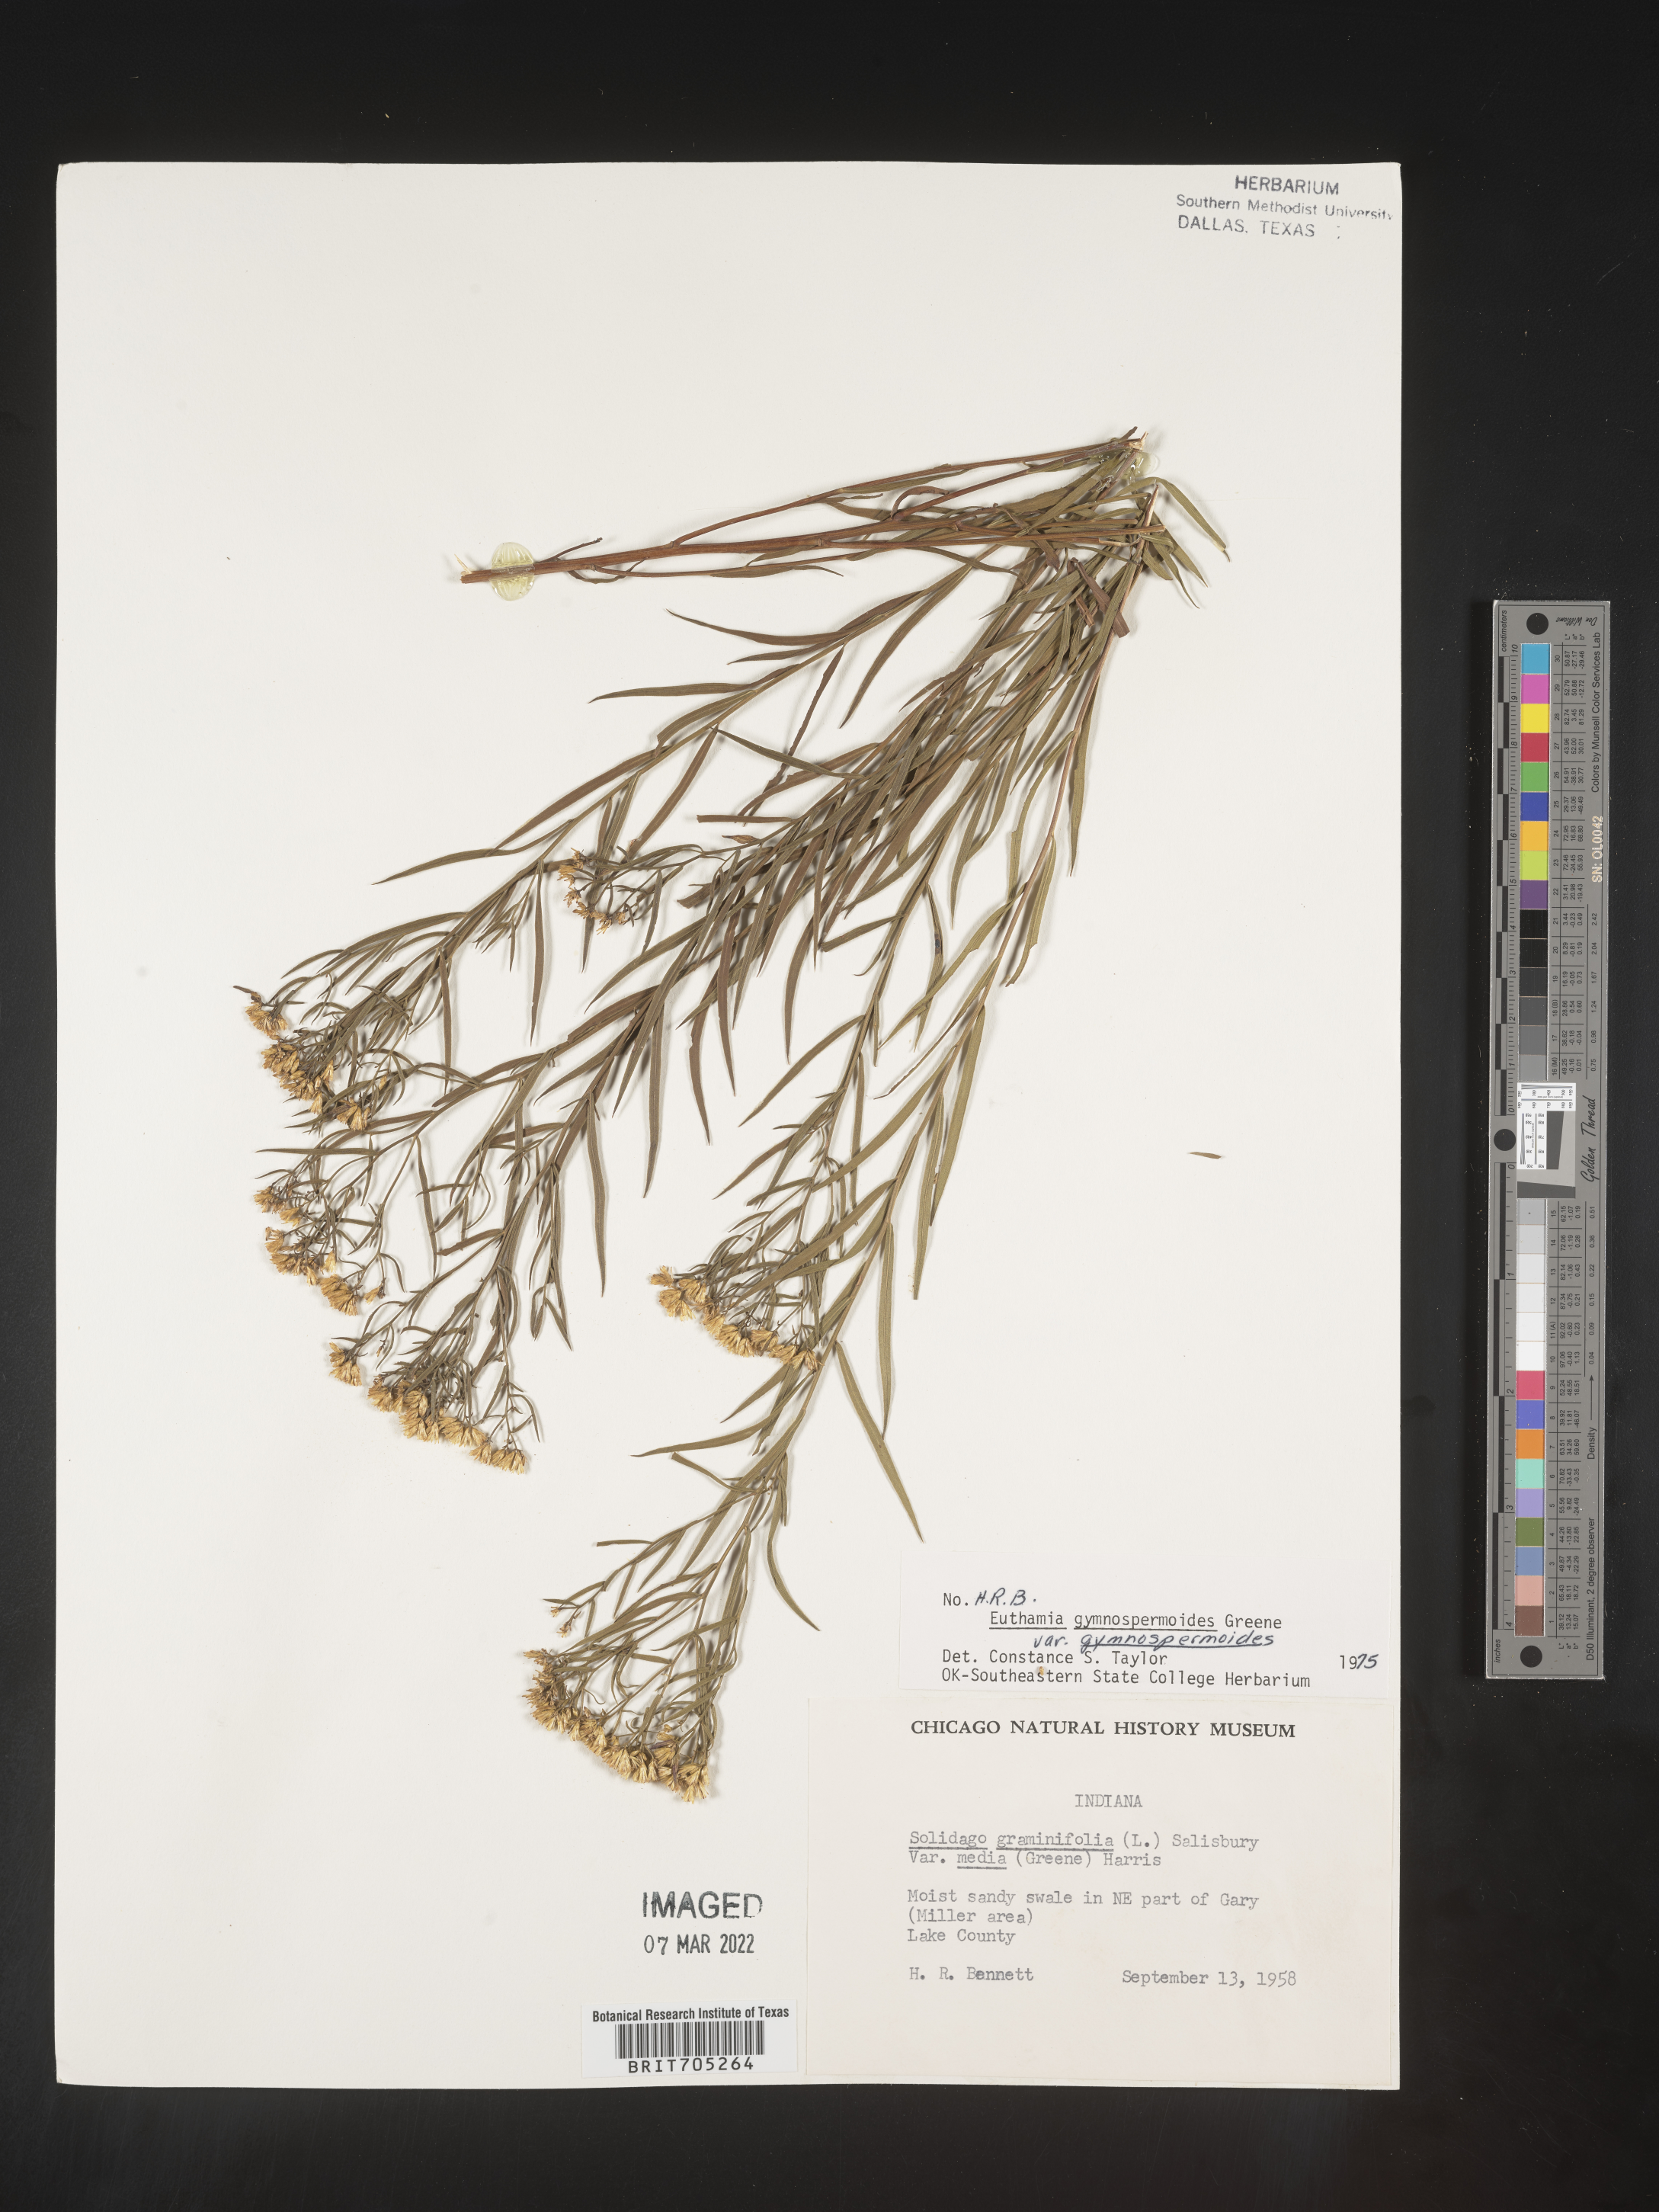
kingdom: Plantae
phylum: Tracheophyta
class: Magnoliopsida
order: Asterales
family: Asteraceae
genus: Euthamia
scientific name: Euthamia gymnospermoides
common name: Great plains goldentop
